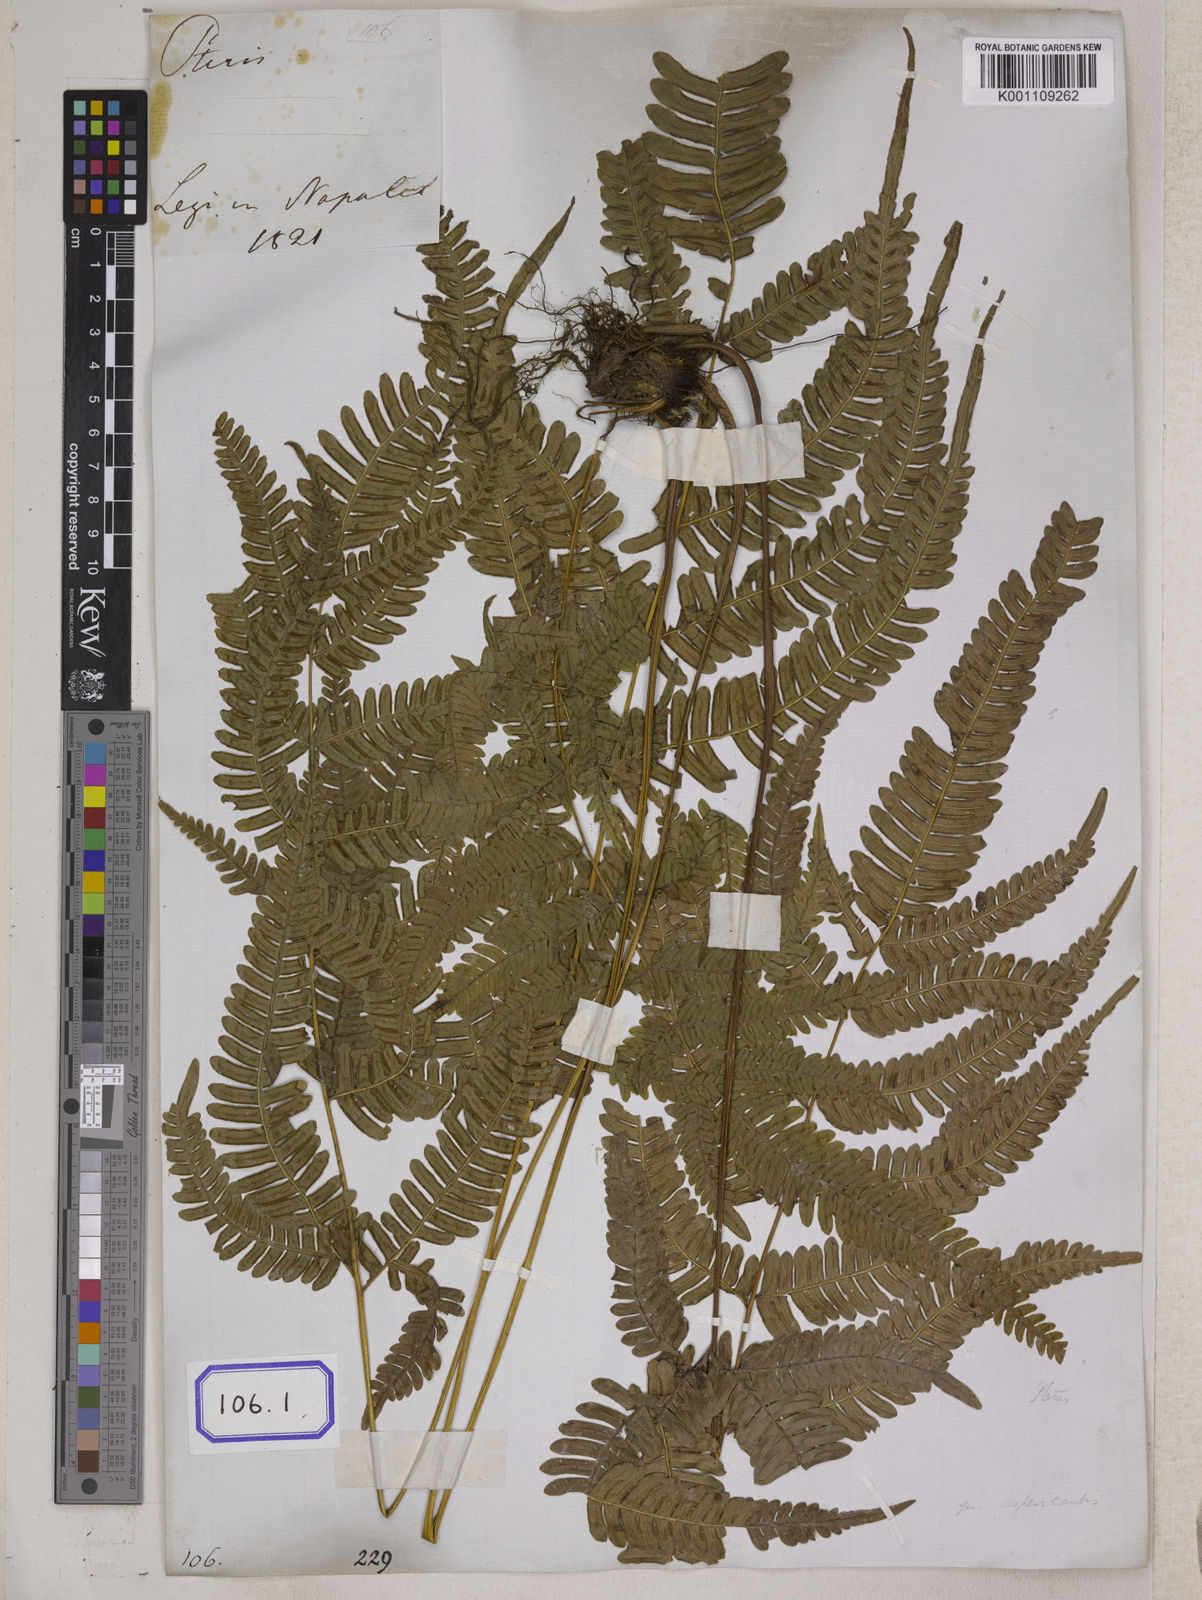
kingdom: Plantae
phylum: Tracheophyta
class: Polypodiopsida
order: Polypodiales
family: Pteridaceae
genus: Pteris
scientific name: Pteris linearis
